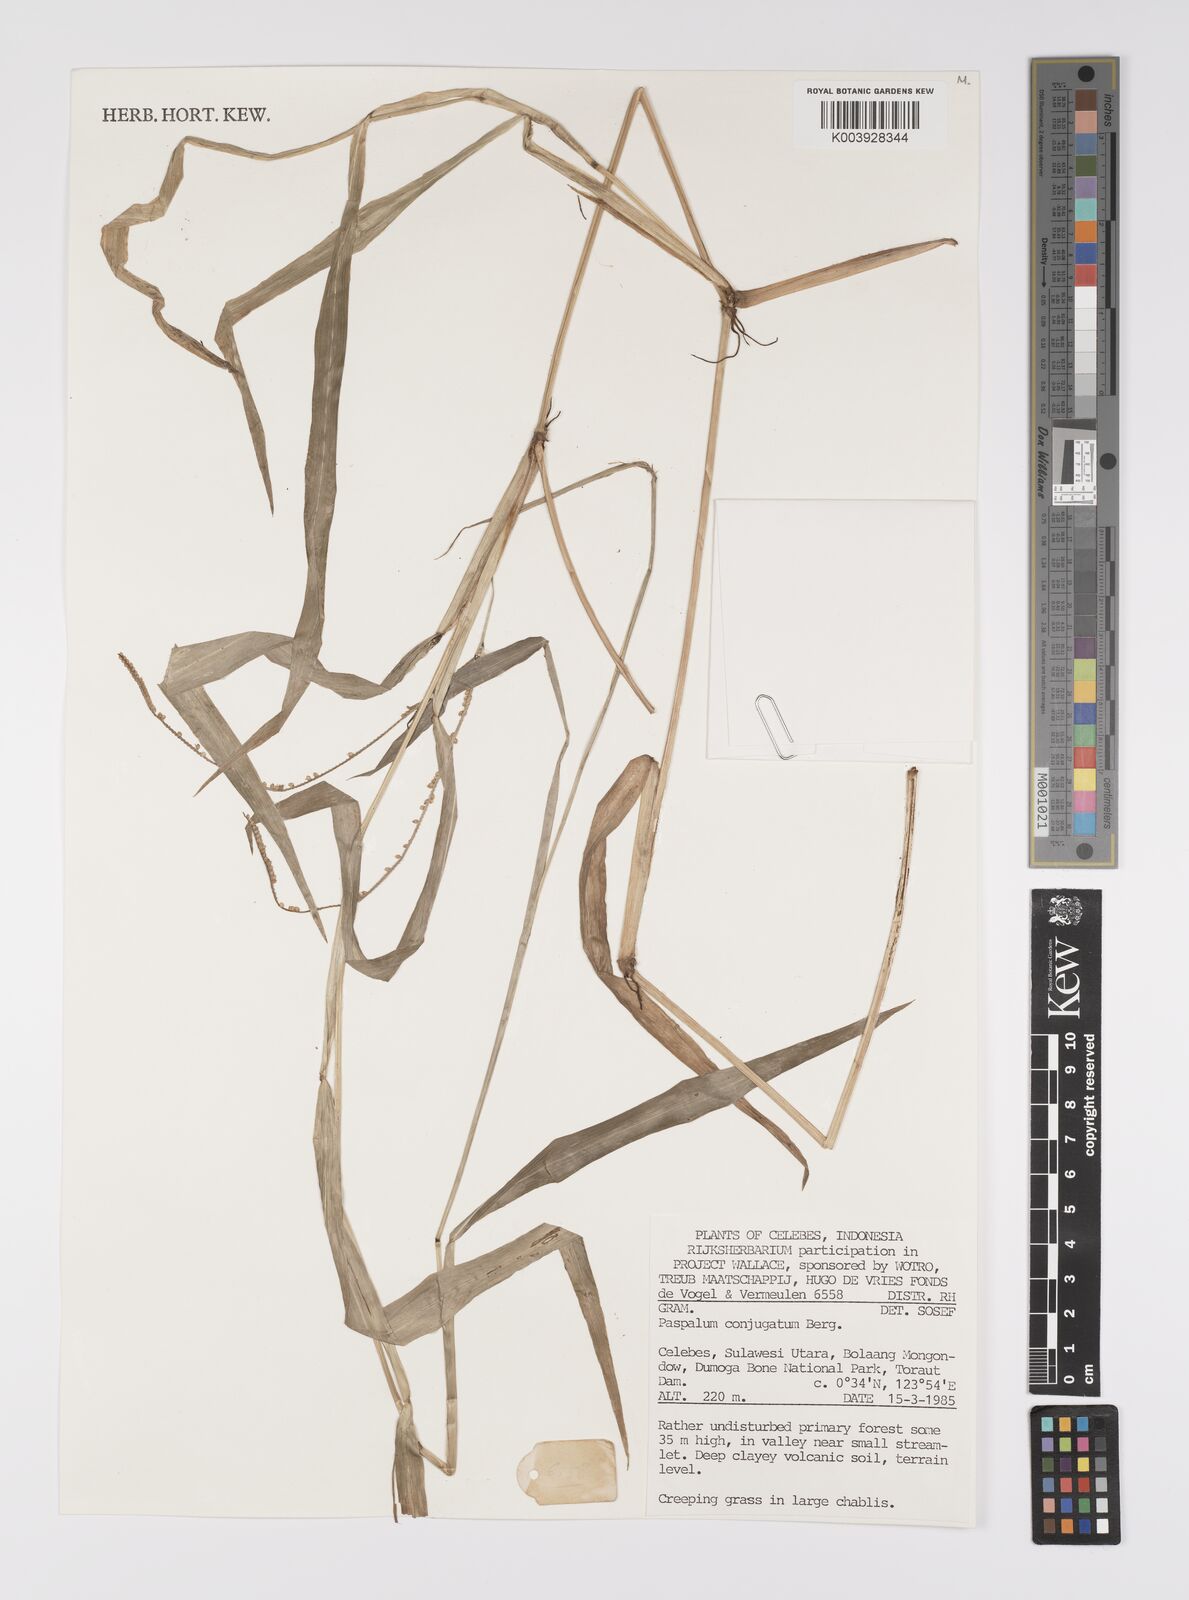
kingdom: Plantae
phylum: Tracheophyta
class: Liliopsida
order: Poales
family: Poaceae
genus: Paspalum
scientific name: Paspalum conjugatum
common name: Hilograss
